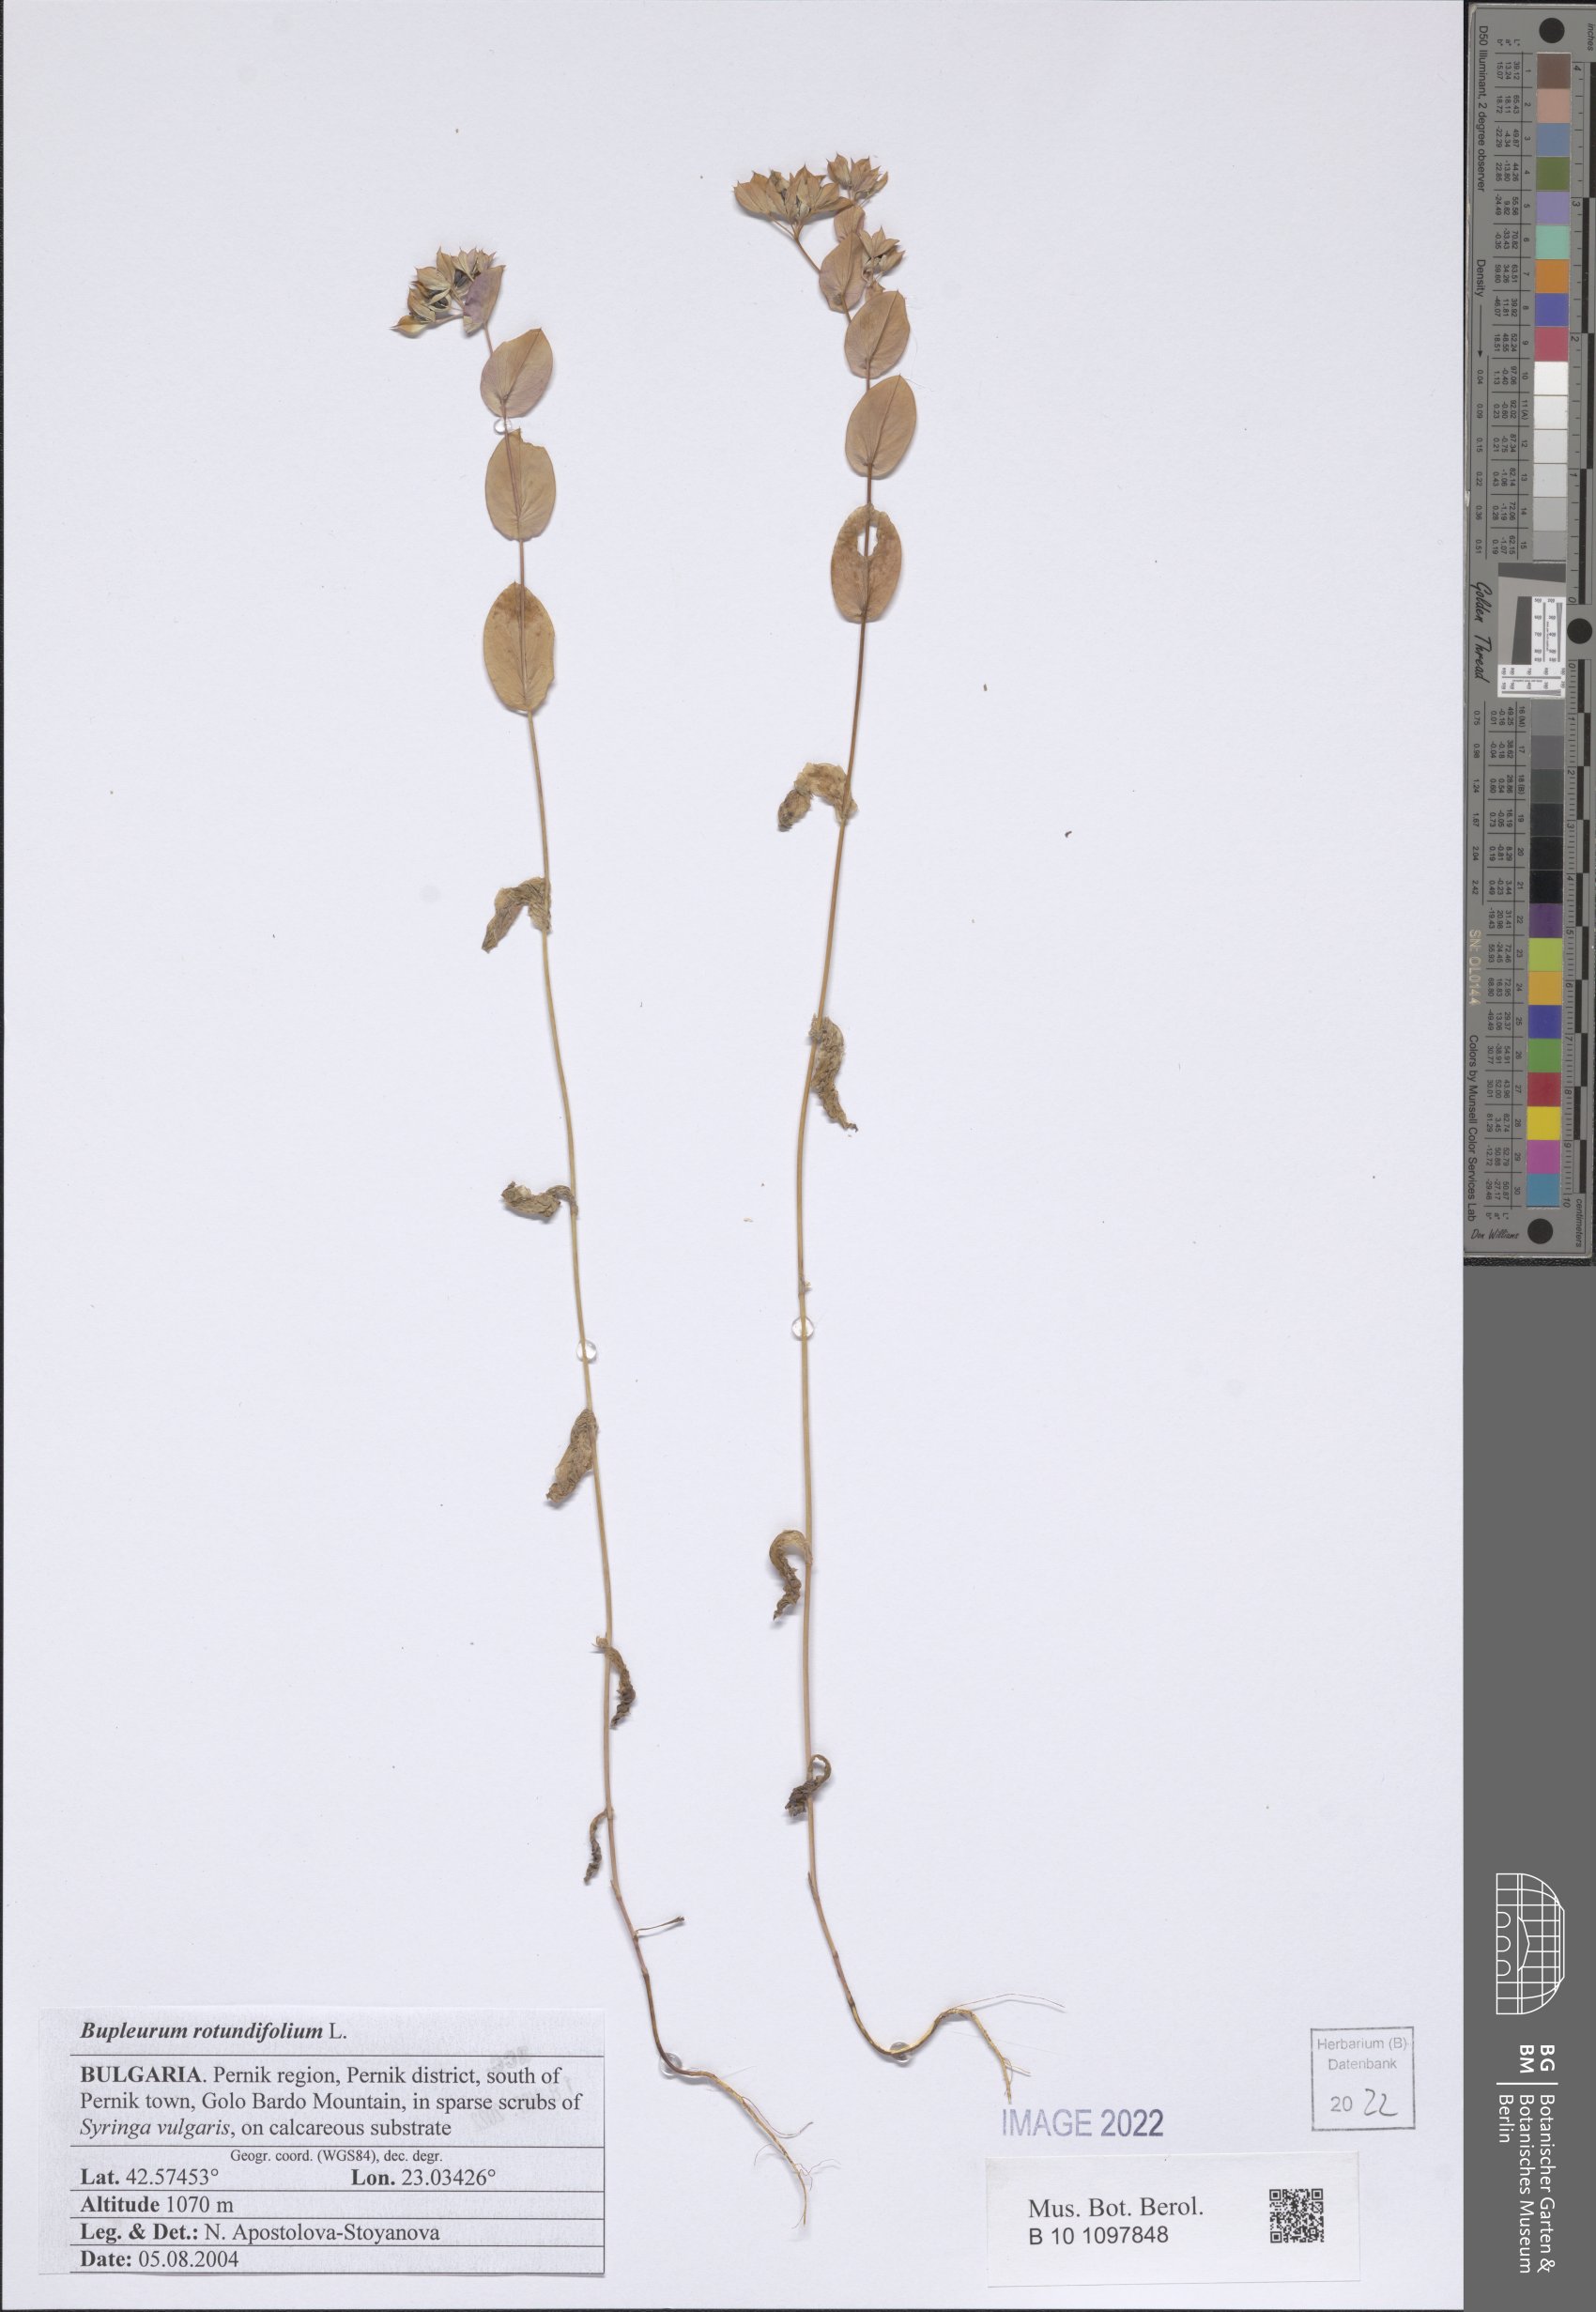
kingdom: Plantae
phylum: Tracheophyta
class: Magnoliopsida
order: Apiales
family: Apiaceae
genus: Bupleurum
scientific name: Bupleurum rotundifolium
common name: Thorow-wax
